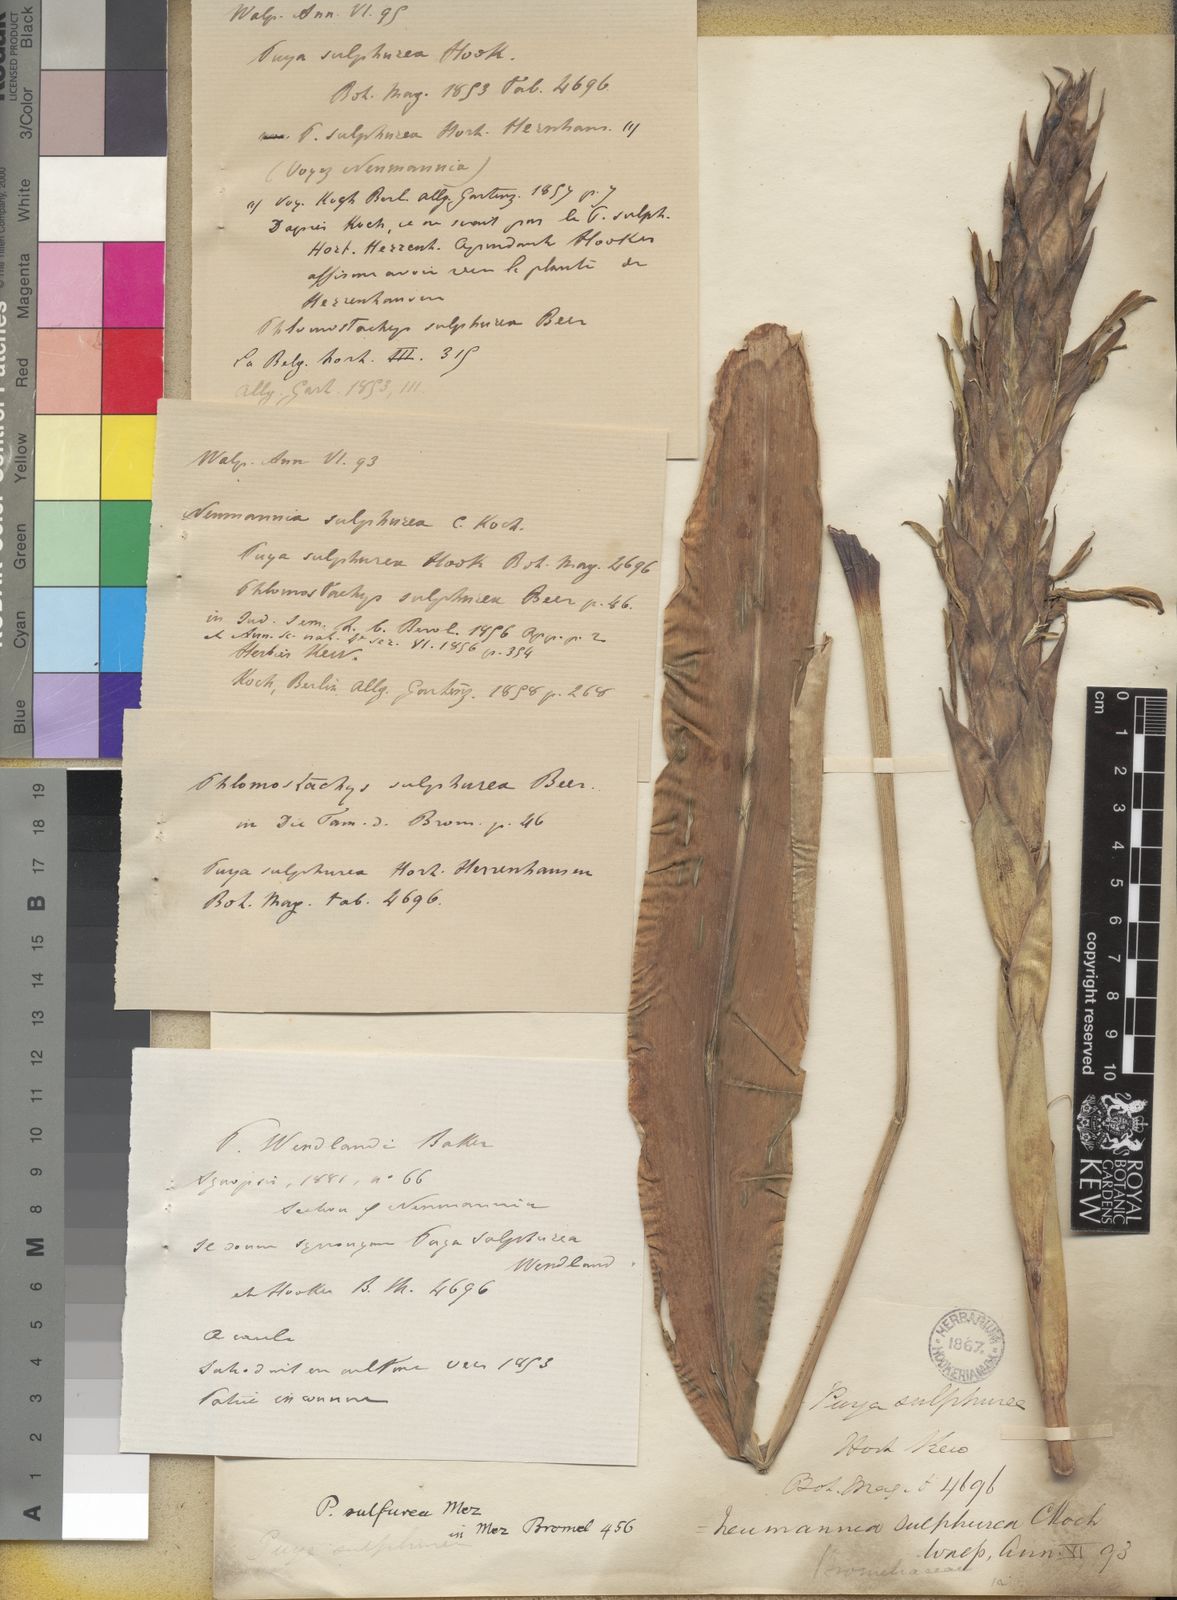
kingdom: Plantae
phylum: Tracheophyta
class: Liliopsida
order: Poales
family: Bromeliaceae
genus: Pitcairnia
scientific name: Pitcairnia
